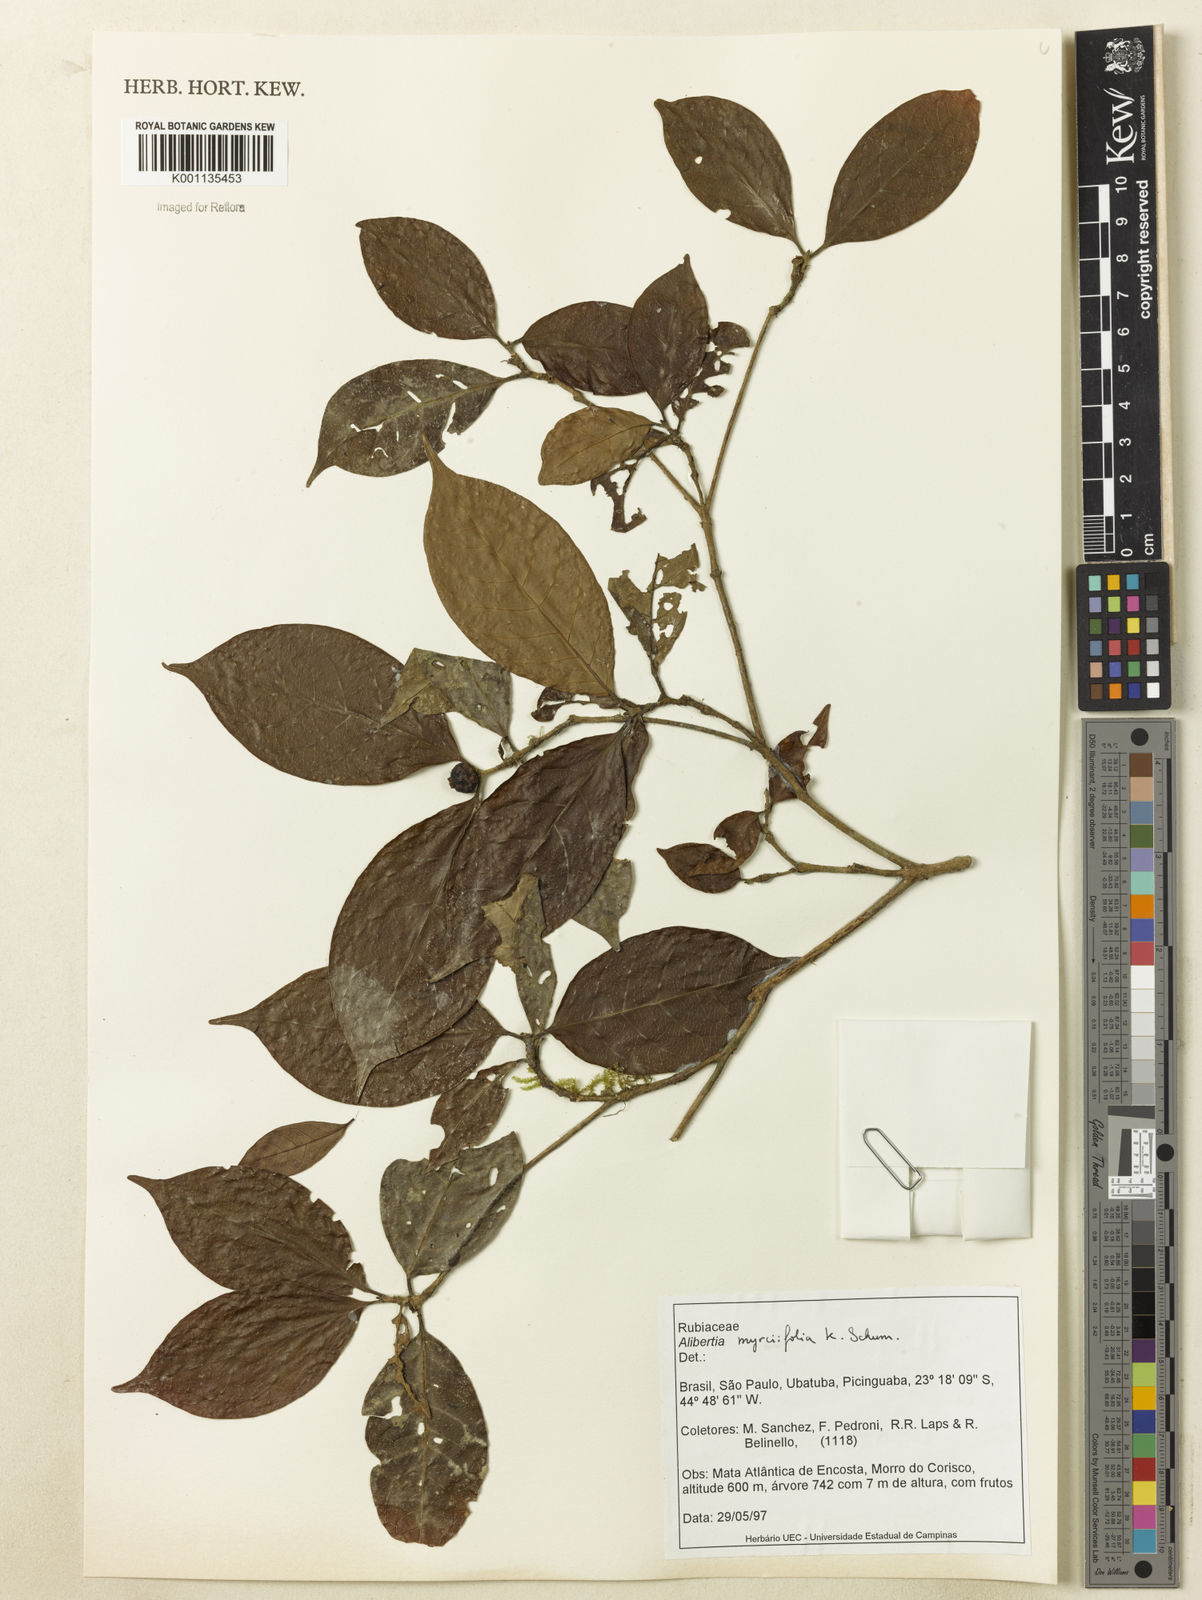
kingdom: Plantae
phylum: Tracheophyta
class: Magnoliopsida
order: Gentianales
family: Rubiaceae
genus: Cordiera
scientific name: Cordiera myrciifolia
